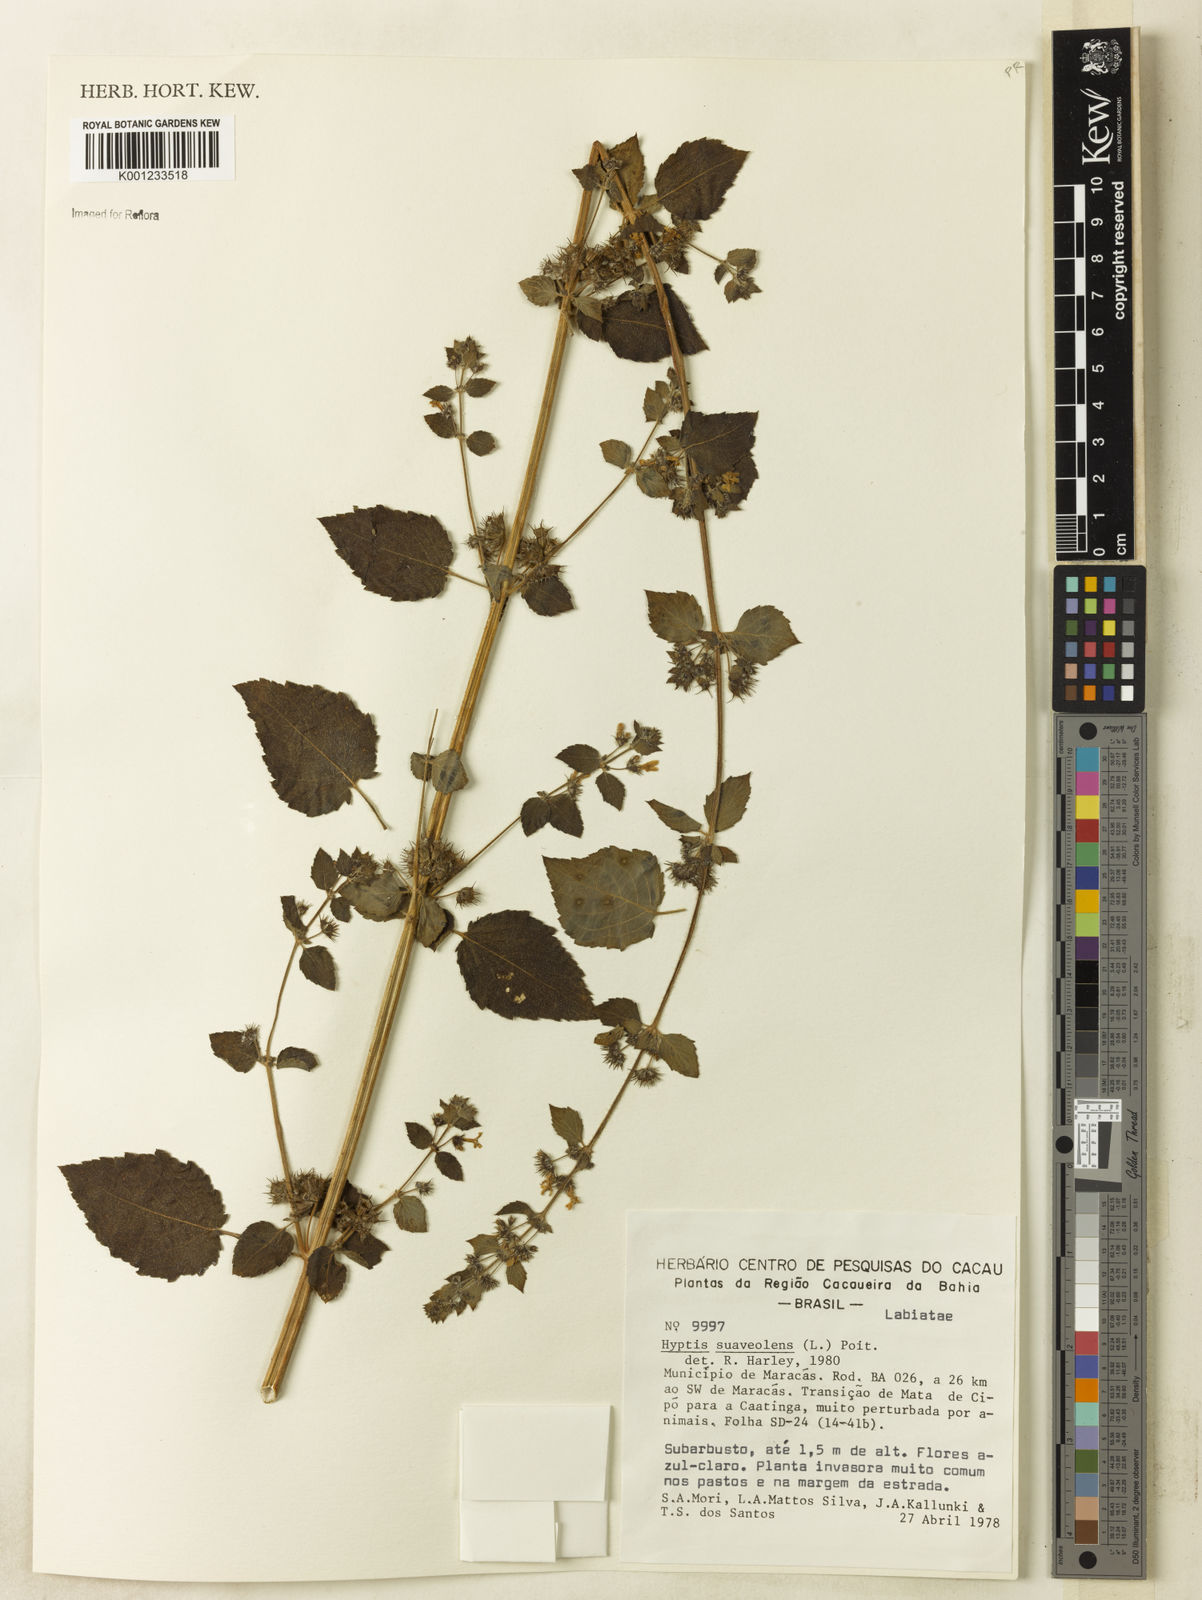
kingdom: Plantae
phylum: Tracheophyta
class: Magnoliopsida
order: Lamiales
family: Lamiaceae
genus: Mesosphaerum
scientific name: Mesosphaerum suaveolens
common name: Pignut
